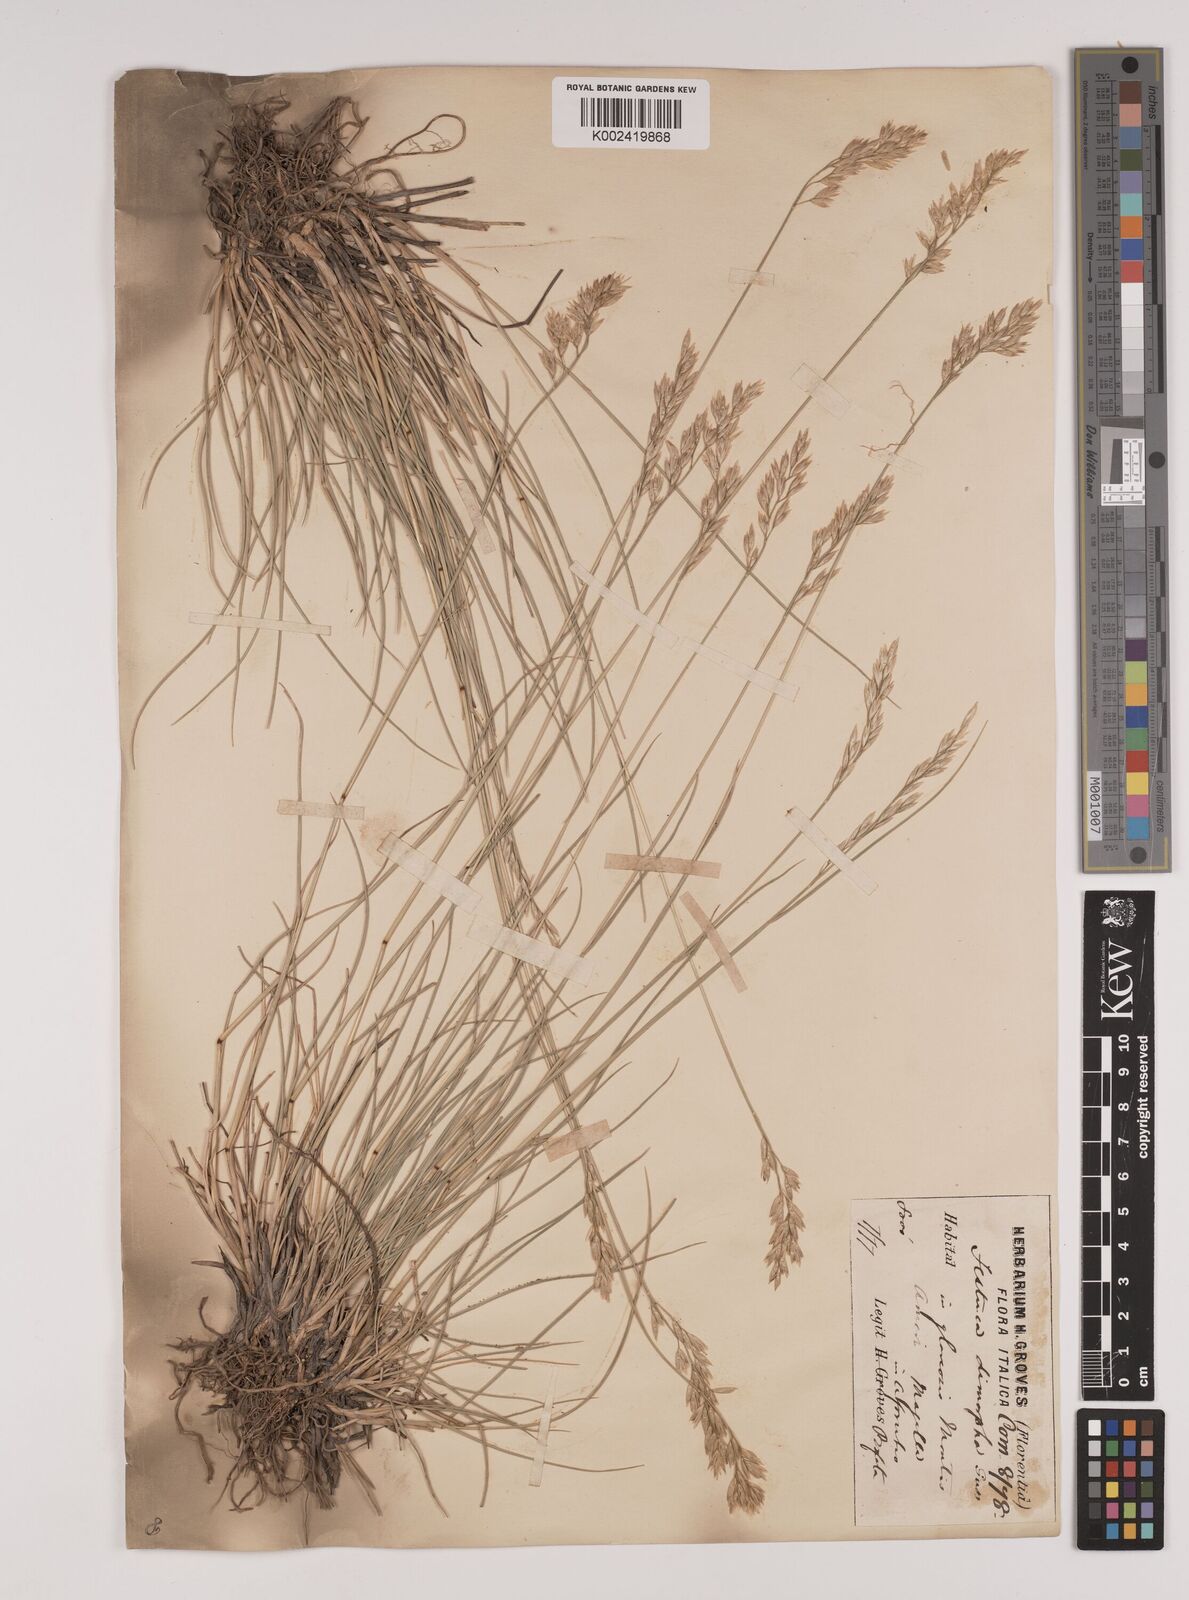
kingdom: Plantae
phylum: Tracheophyta
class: Liliopsida
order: Poales
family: Poaceae
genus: Festuca
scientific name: Festuca dimorpha
